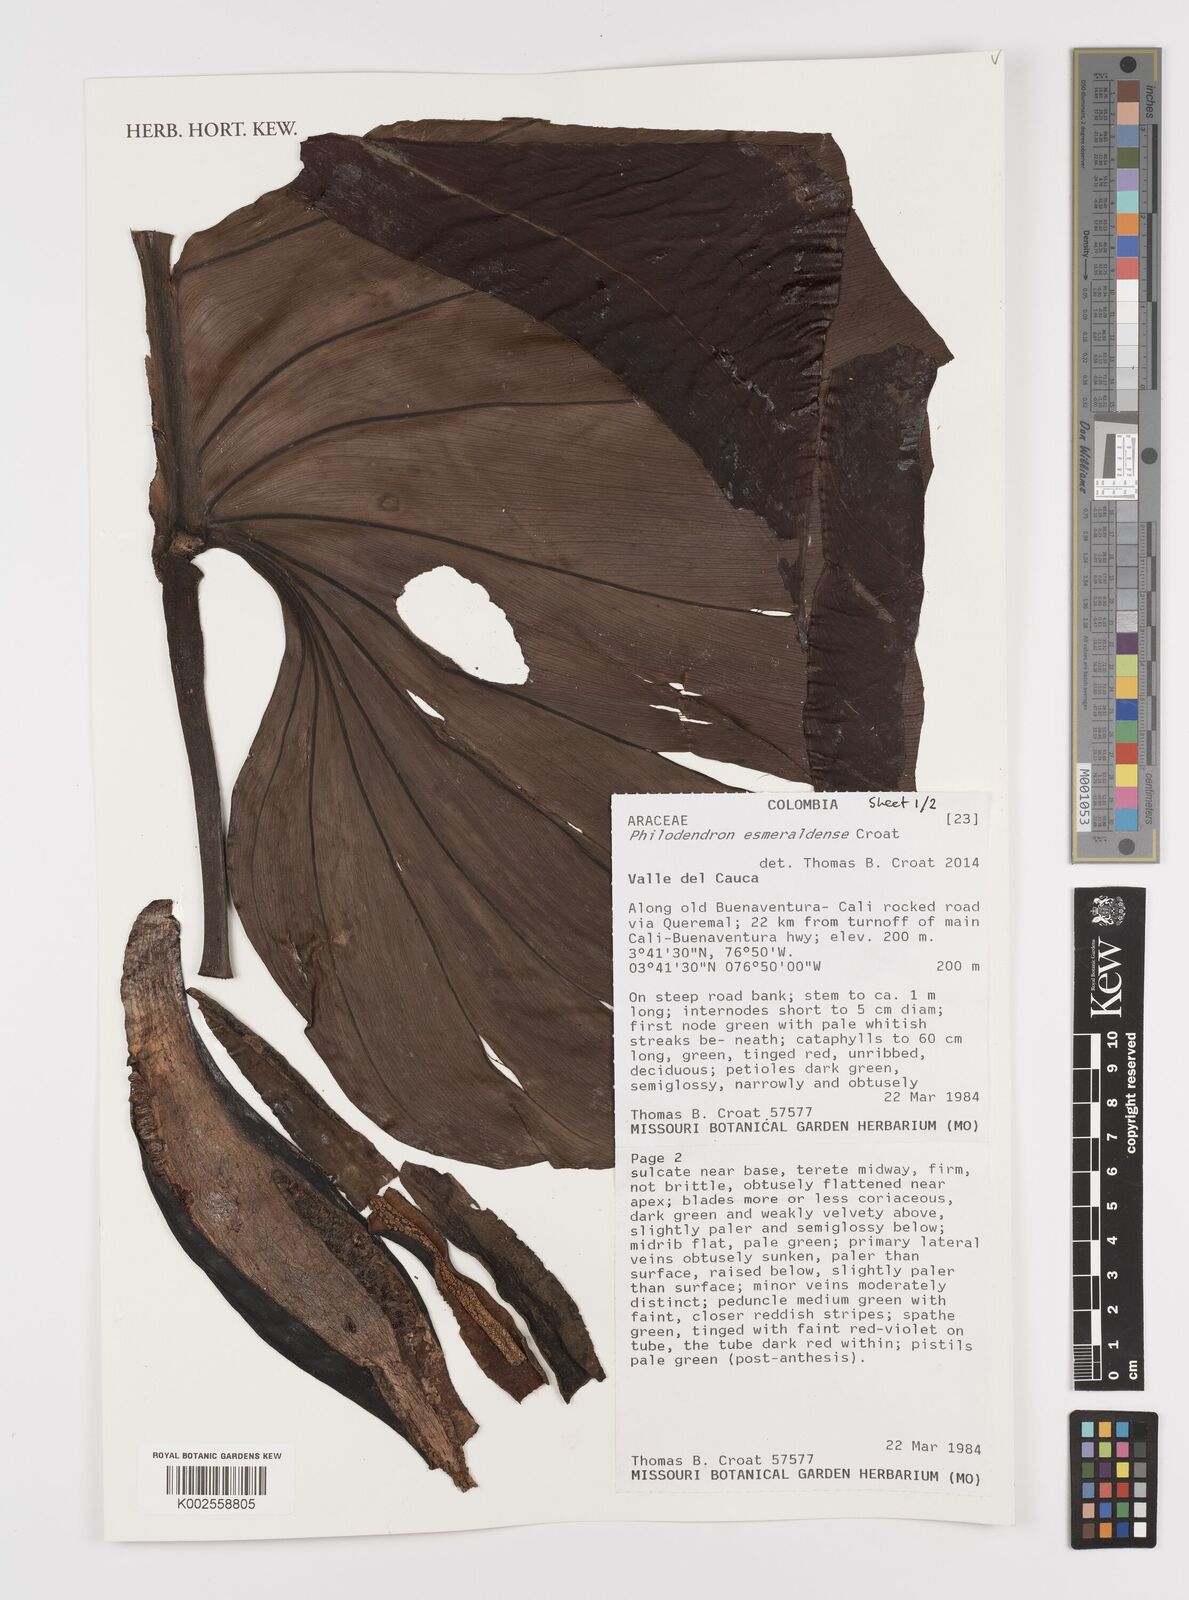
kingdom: Plantae
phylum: Tracheophyta
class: Liliopsida
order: Alismatales
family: Araceae
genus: Philodendron
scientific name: Philodendron esmeraldense
